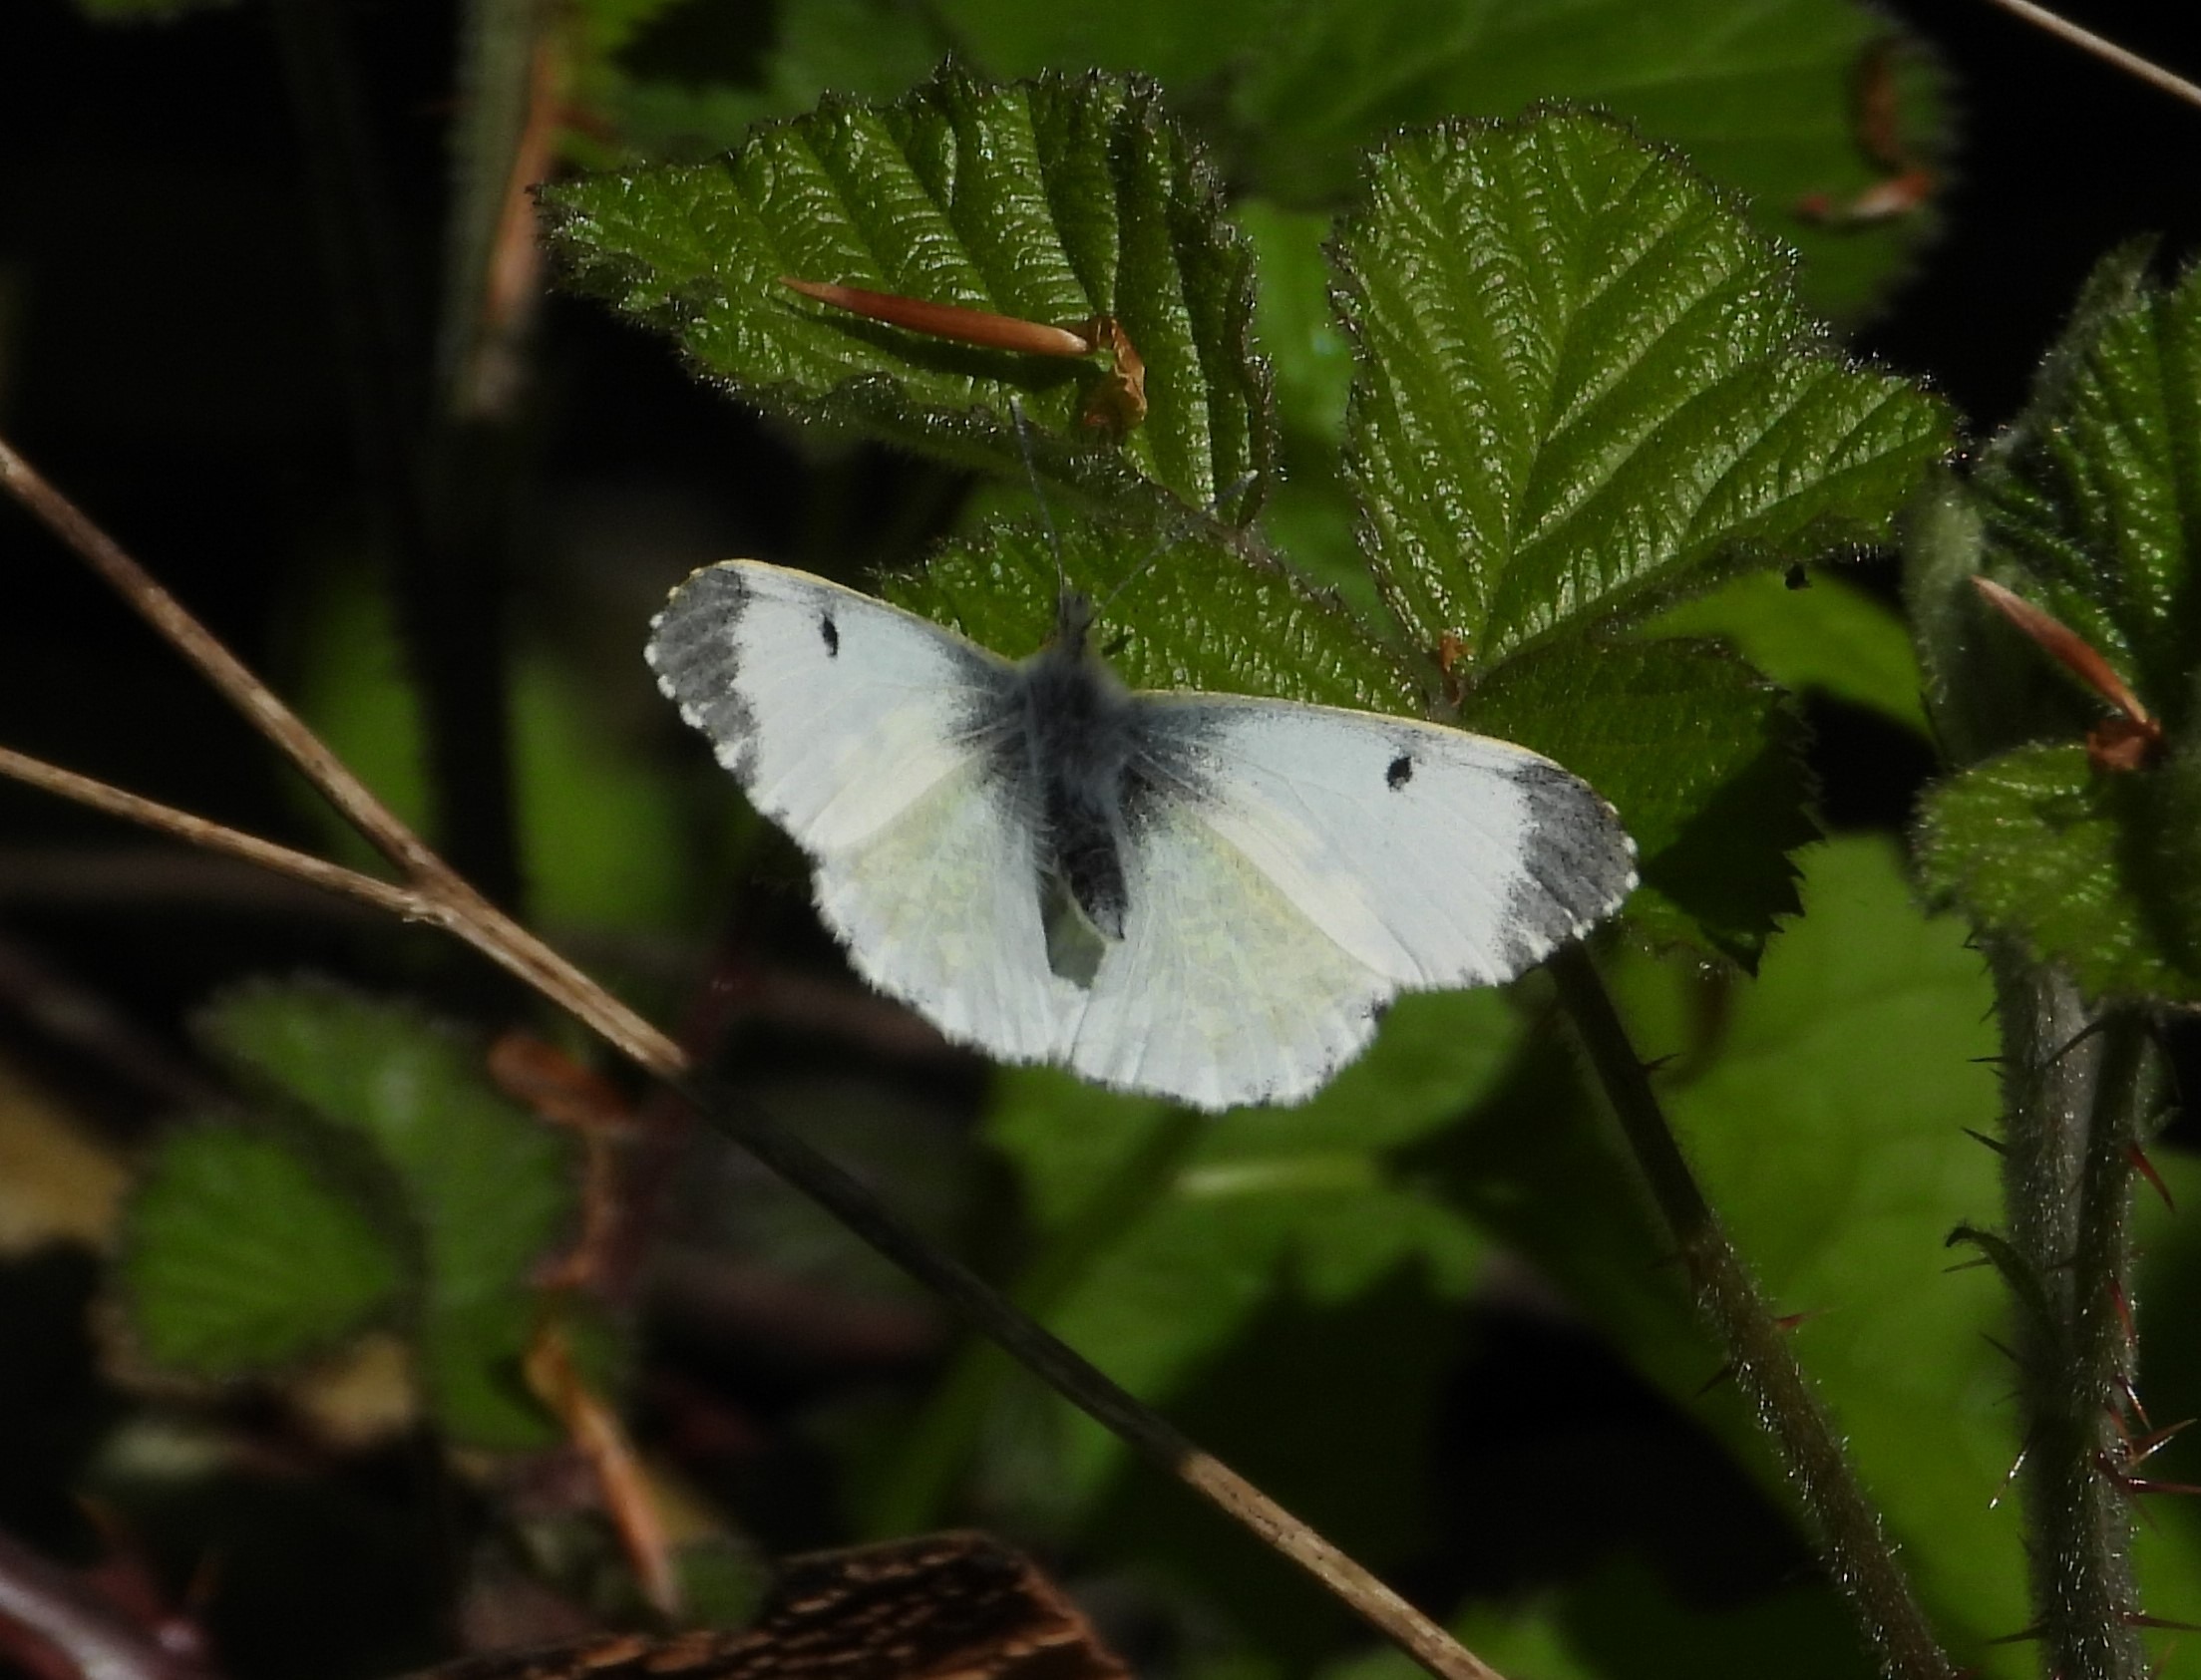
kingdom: Animalia
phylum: Arthropoda
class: Insecta
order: Lepidoptera
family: Pieridae
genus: Anthocharis
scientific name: Anthocharis cardamines
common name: Aurora
